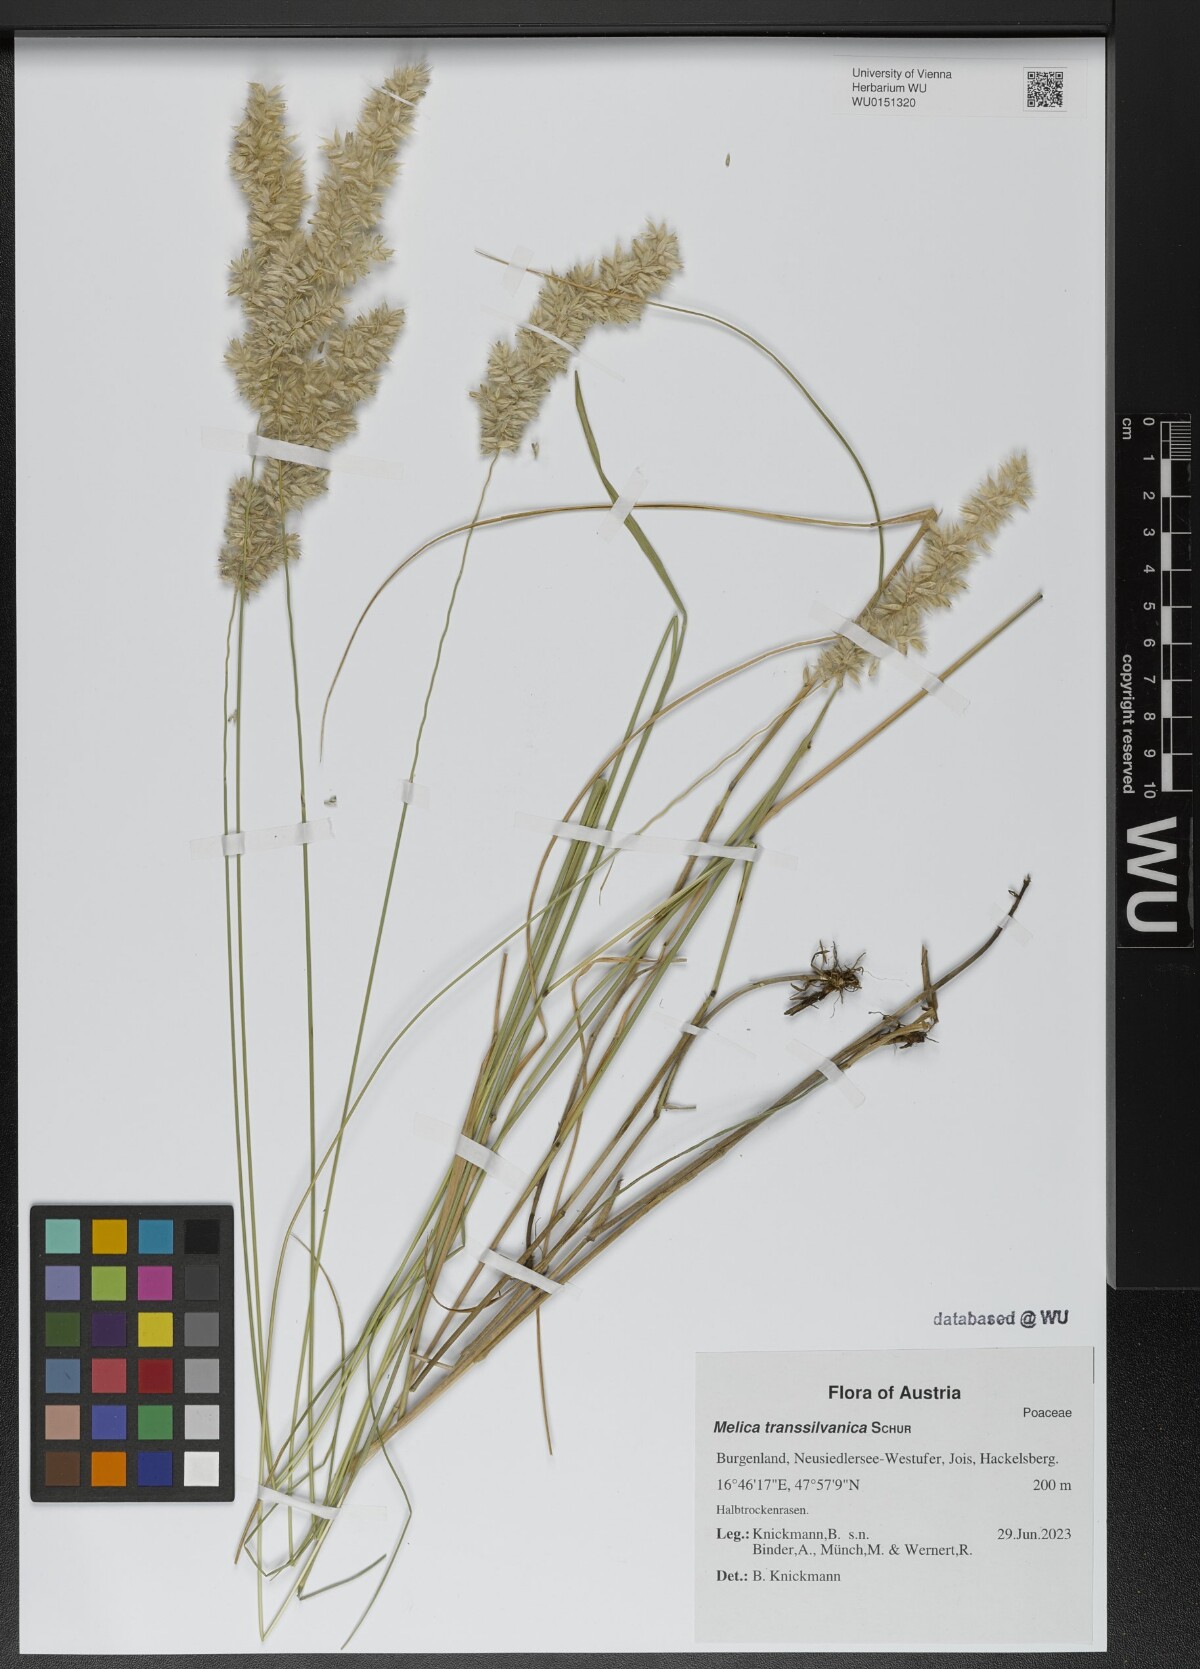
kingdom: Plantae
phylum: Tracheophyta
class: Liliopsida
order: Poales
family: Poaceae
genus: Melica
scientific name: Melica transsilvanica
